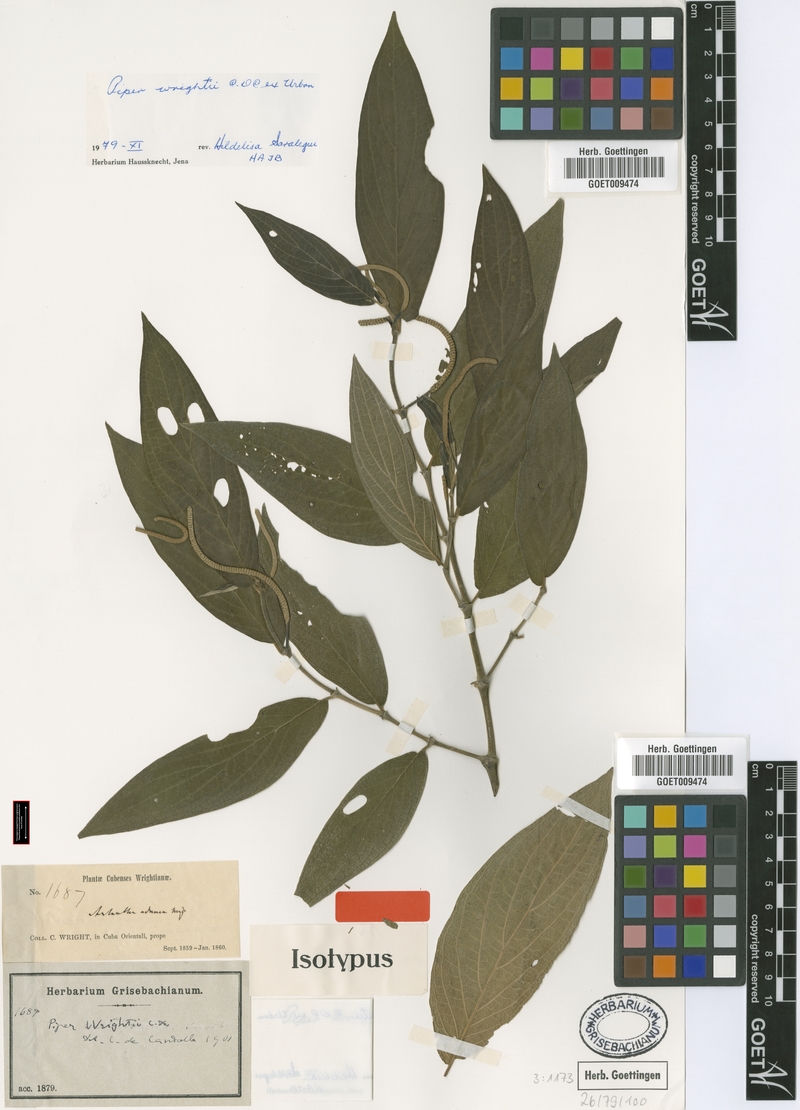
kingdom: Plantae
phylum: Tracheophyta
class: Magnoliopsida
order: Piperales
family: Piperaceae
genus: Piper
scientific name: Piper wrightii
